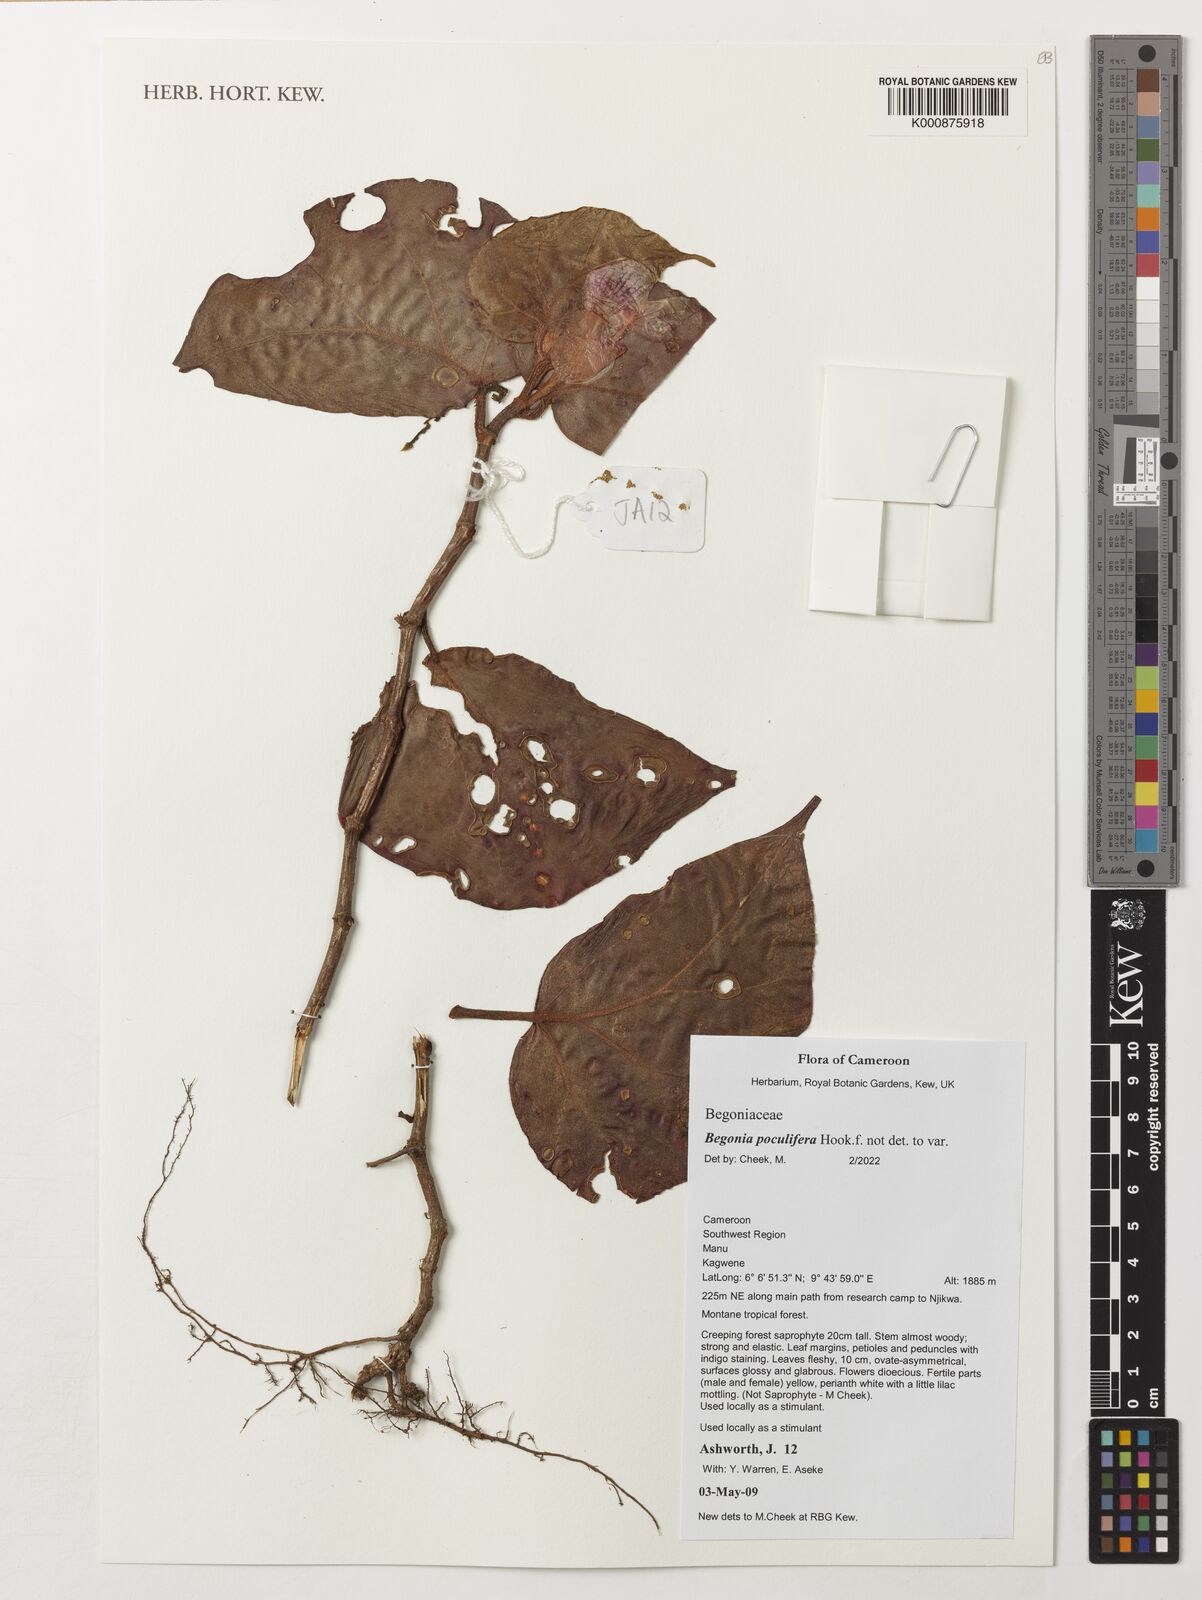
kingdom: Plantae
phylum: Tracheophyta
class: Magnoliopsida
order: Cucurbitales
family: Begoniaceae
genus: Begonia
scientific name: Begonia poculifera
